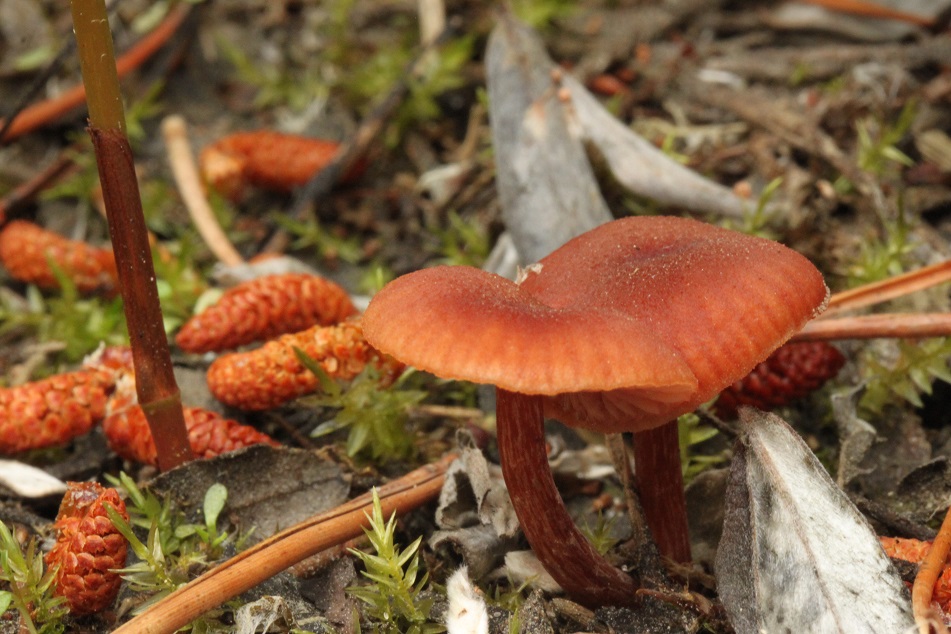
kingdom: Fungi
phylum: Basidiomycota
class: Agaricomycetes
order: Agaricales
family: Hydnangiaceae
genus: Laccaria
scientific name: Laccaria proxima
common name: stor ametysthat
